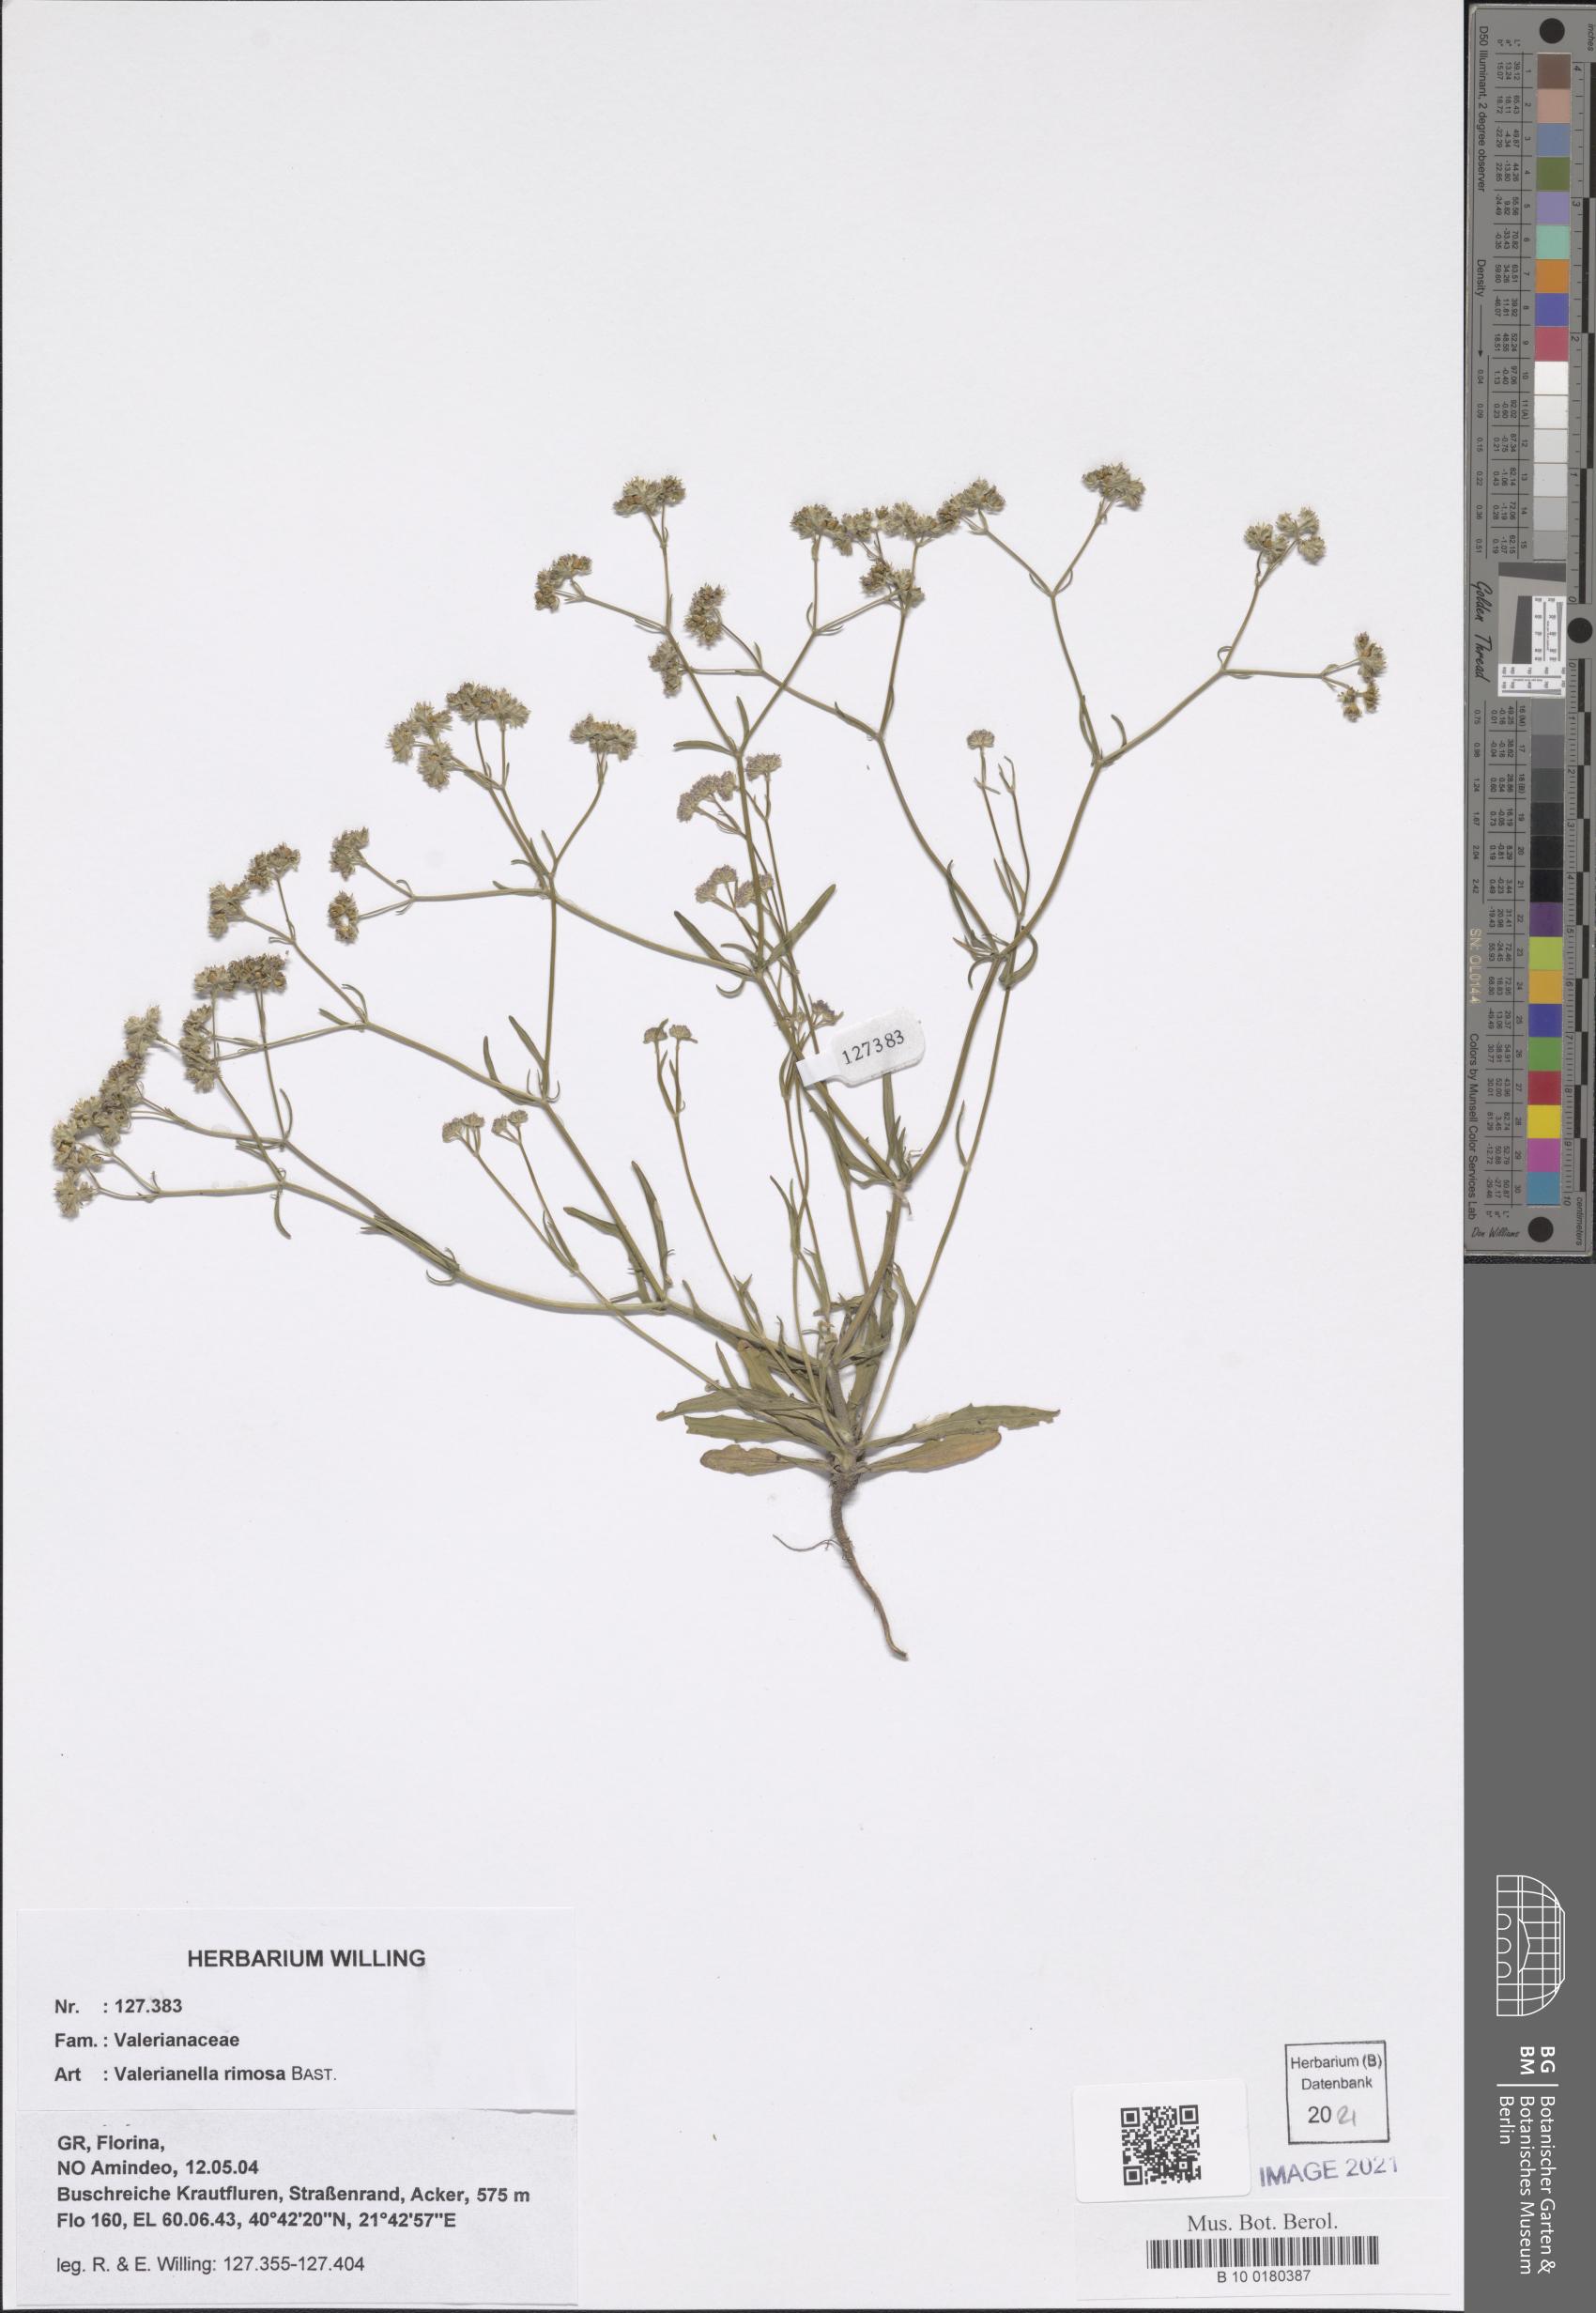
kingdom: Plantae
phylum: Tracheophyta
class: Magnoliopsida
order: Dipsacales
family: Caprifoliaceae
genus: Valerianella
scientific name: Valerianella rimosa
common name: Broad-fruited cornsalad
